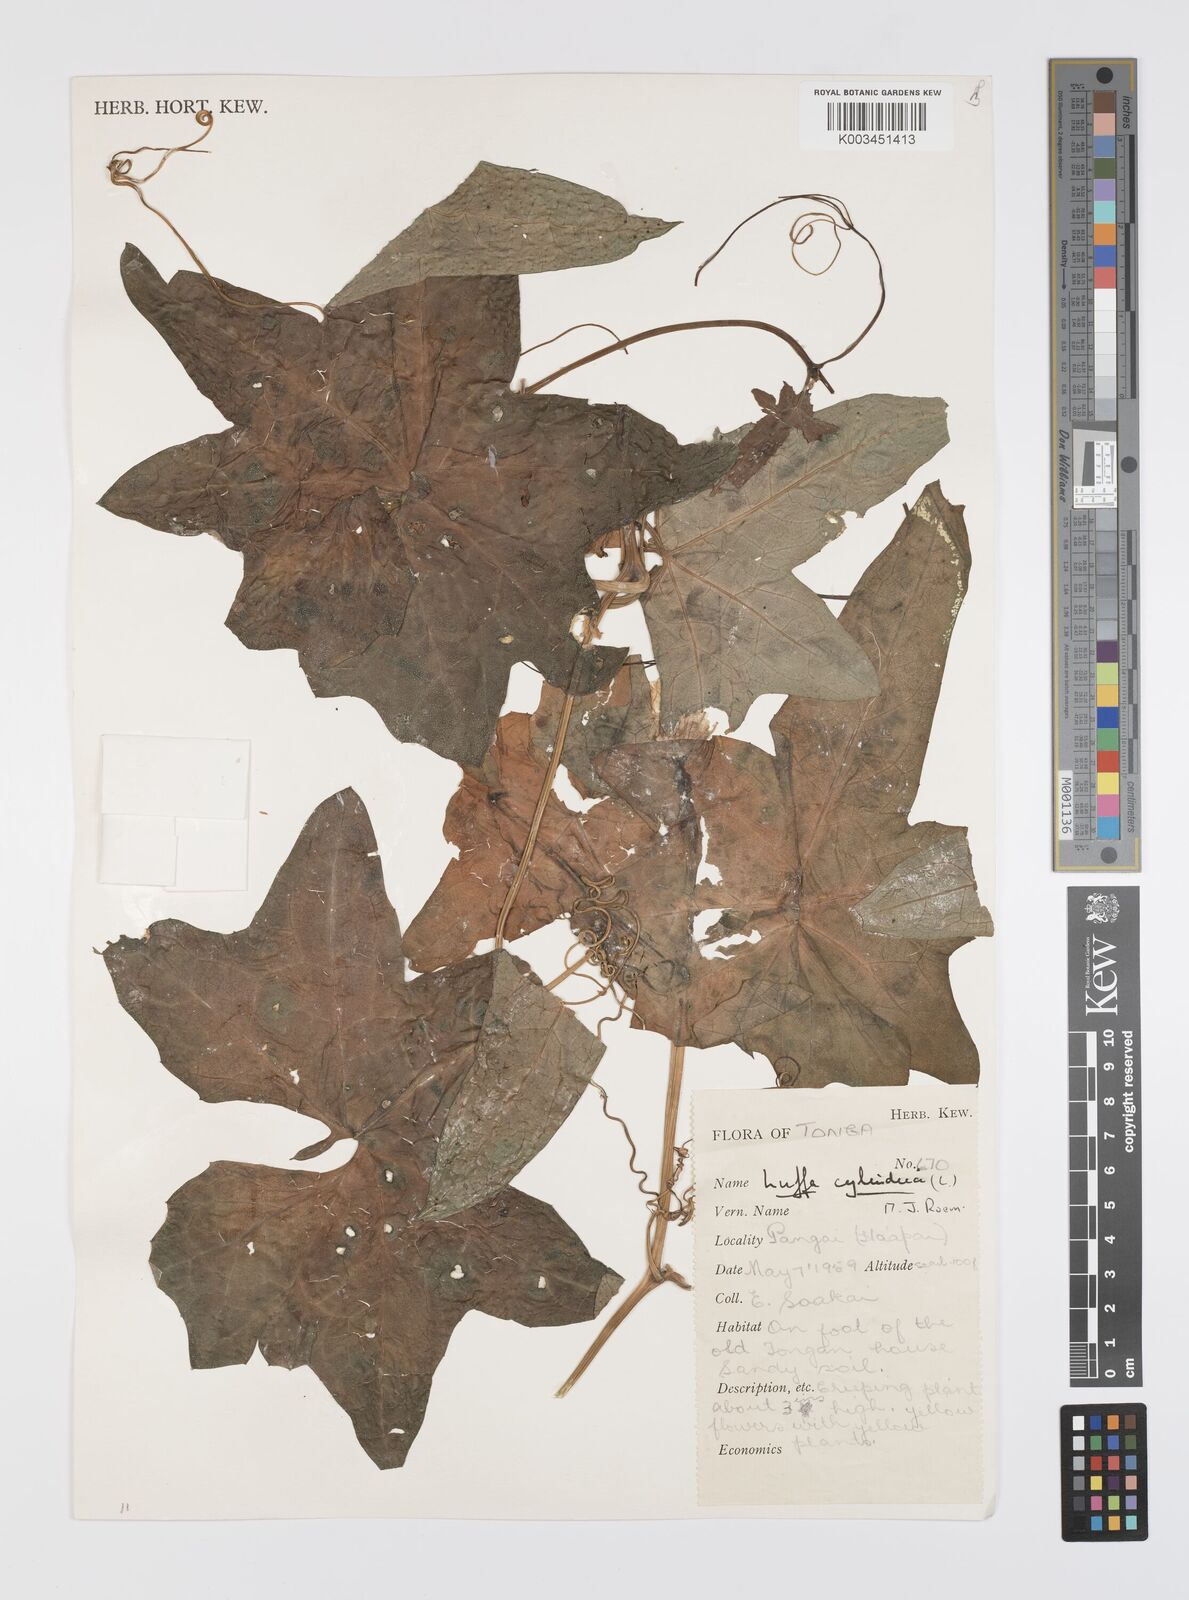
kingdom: Plantae
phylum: Tracheophyta
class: Magnoliopsida
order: Cucurbitales
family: Cucurbitaceae
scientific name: Cucurbitaceae
